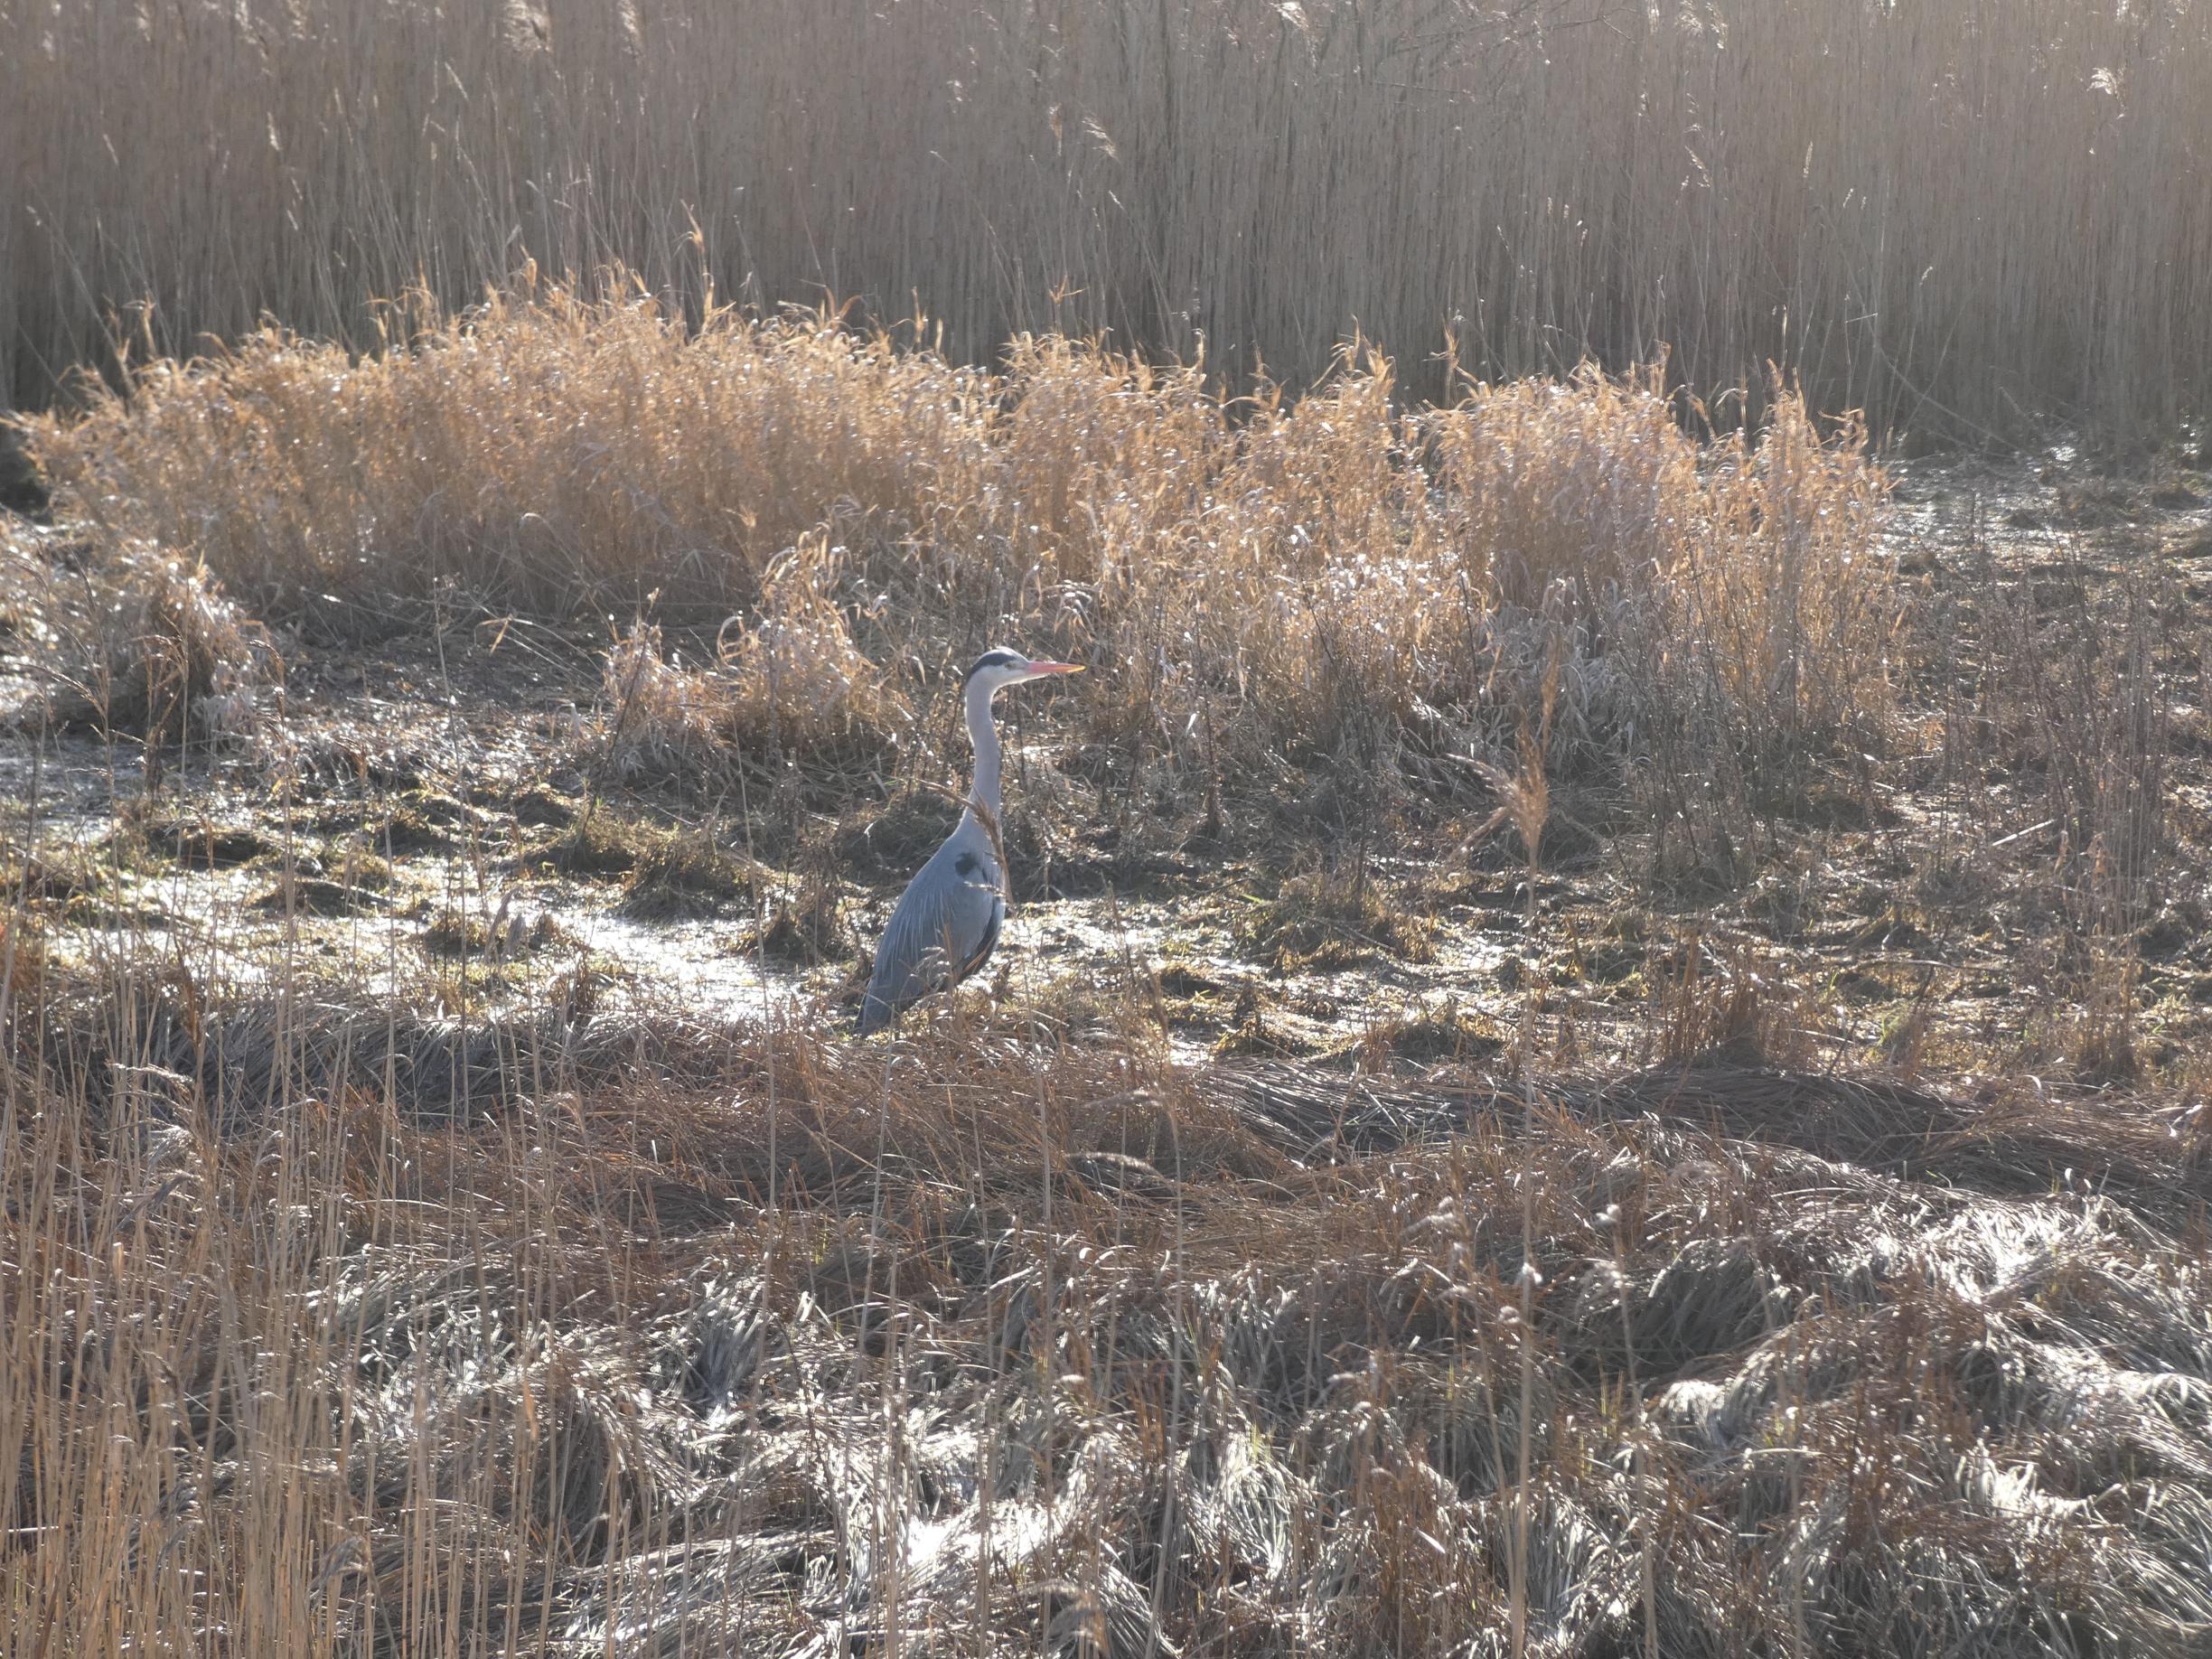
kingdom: Animalia
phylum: Chordata
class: Aves
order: Pelecaniformes
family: Ardeidae
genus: Ardea
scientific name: Ardea cinerea
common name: Fiskehejre
